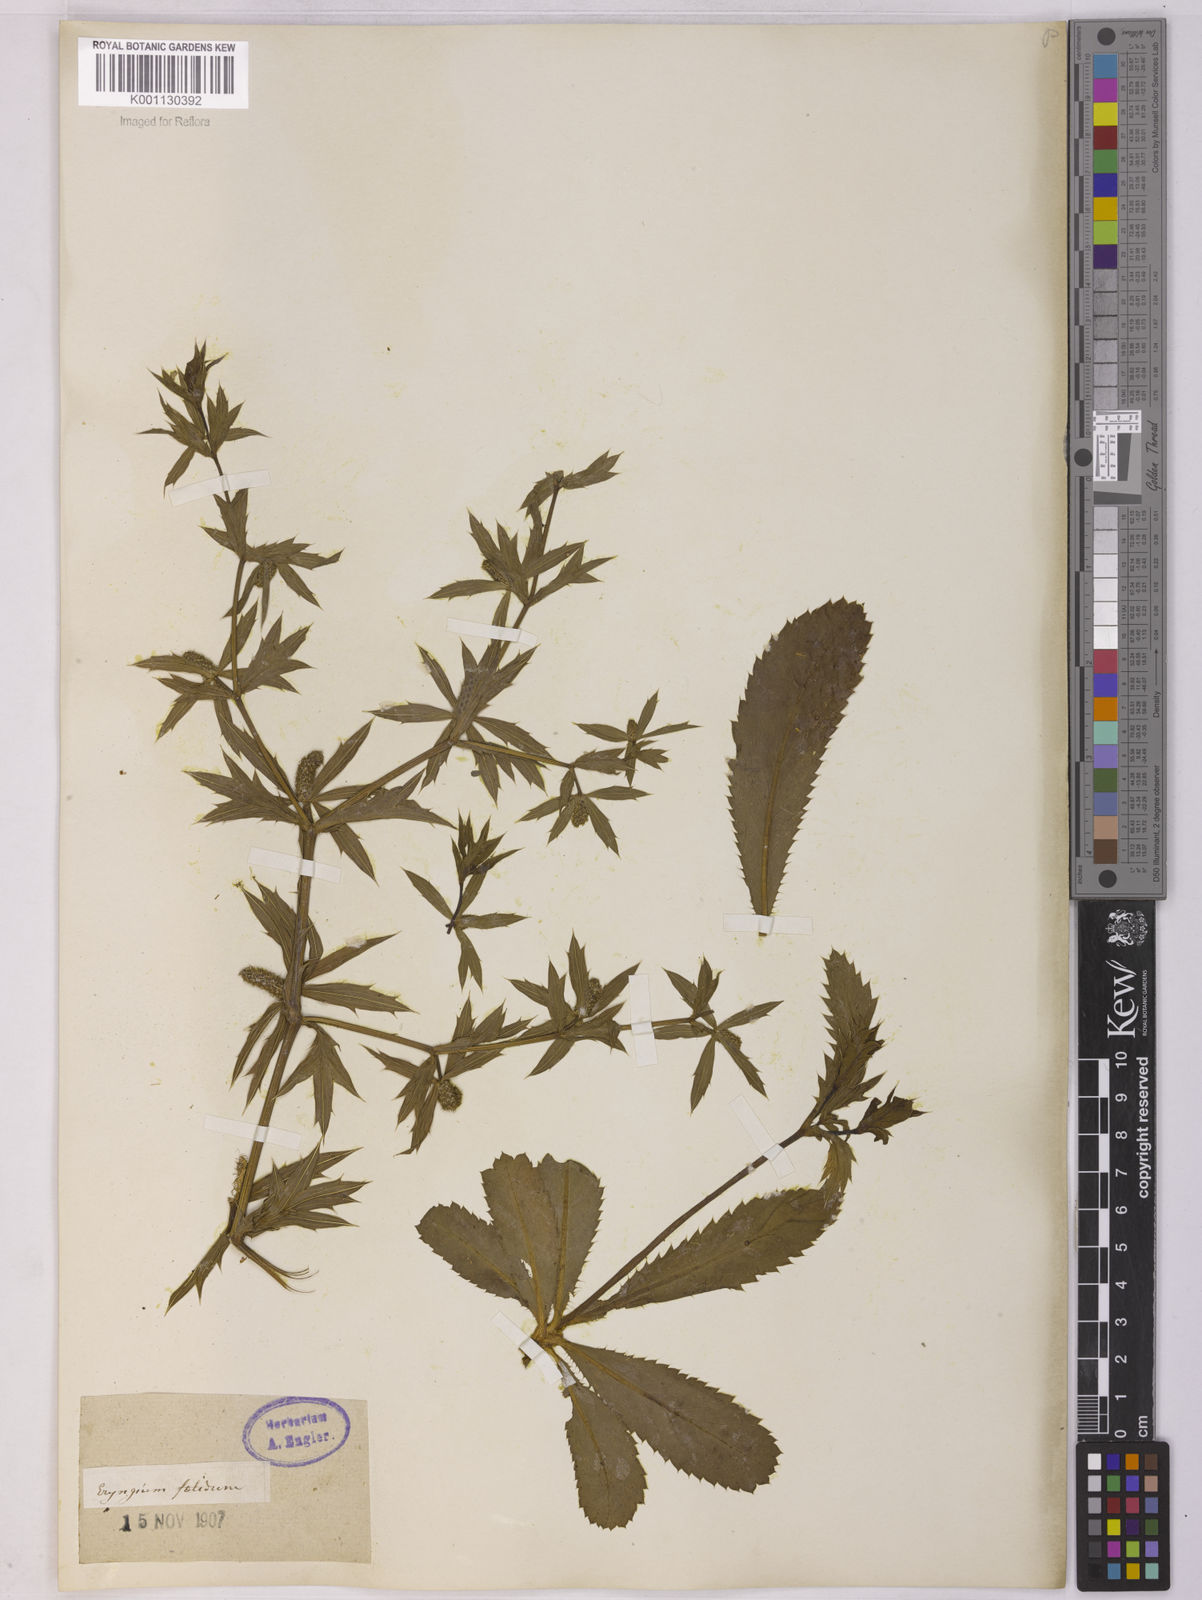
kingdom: Plantae
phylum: Tracheophyta
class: Magnoliopsida
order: Apiales
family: Apiaceae
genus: Eryngium
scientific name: Eryngium foetidum
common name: Fitweed
